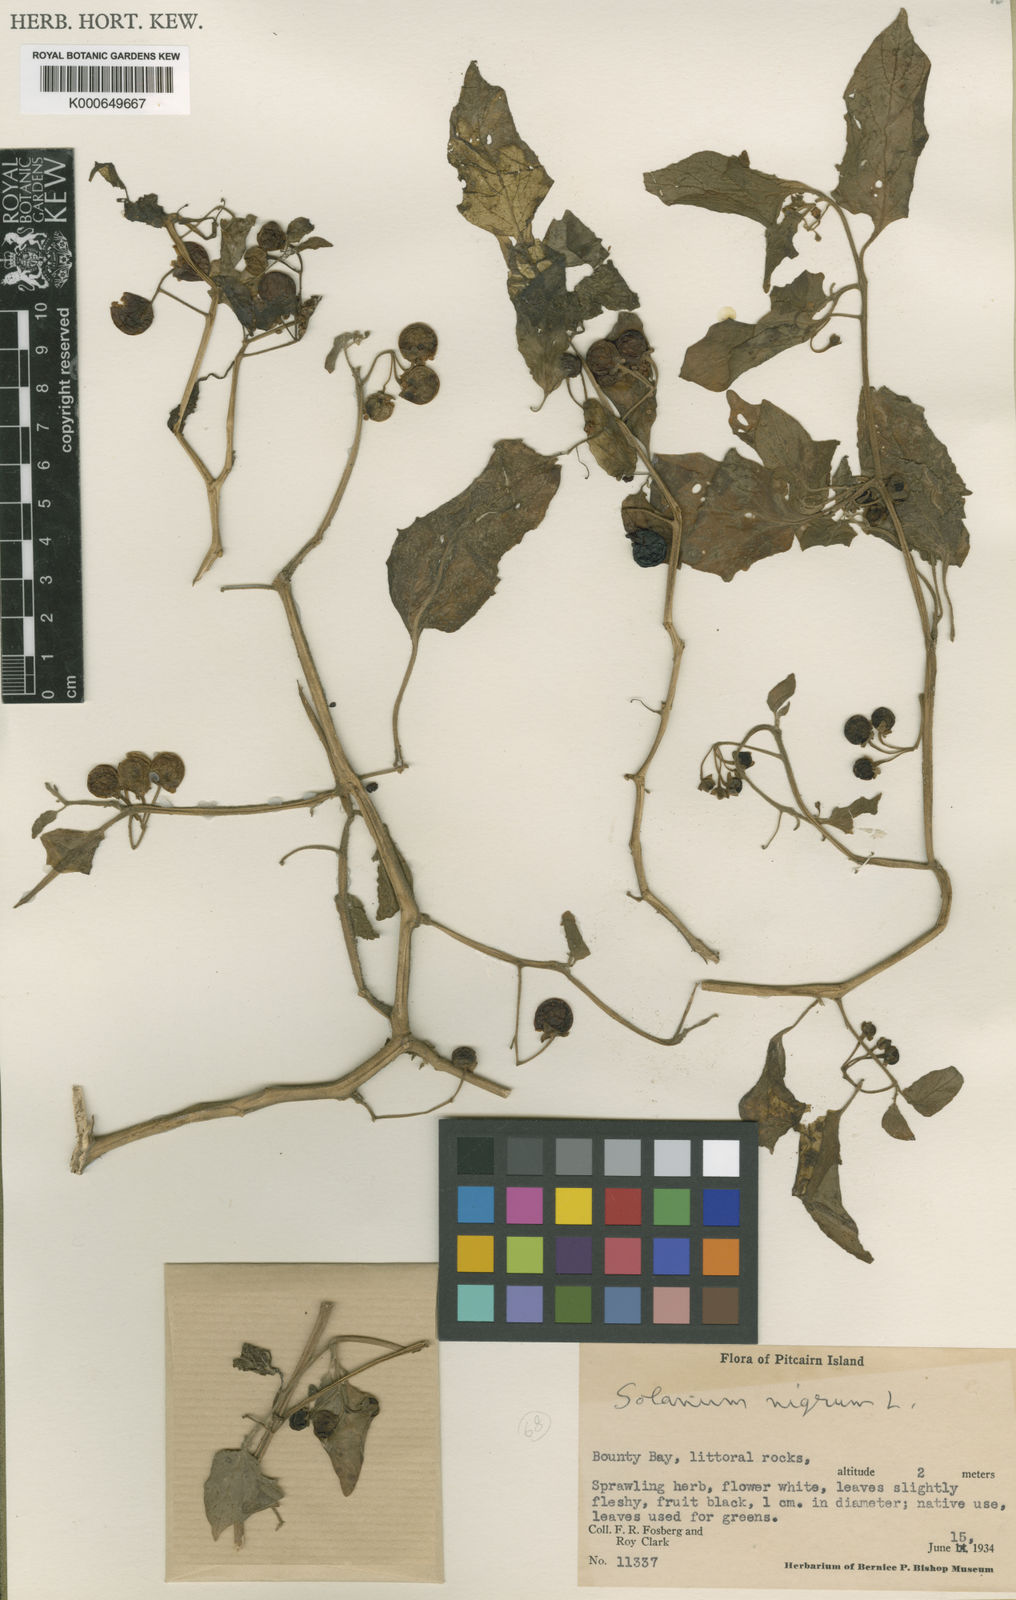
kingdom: Plantae
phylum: Tracheophyta
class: Magnoliopsida
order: Solanales
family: Solanaceae
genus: Solanum
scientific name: Solanum americanum
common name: American black nightshade
